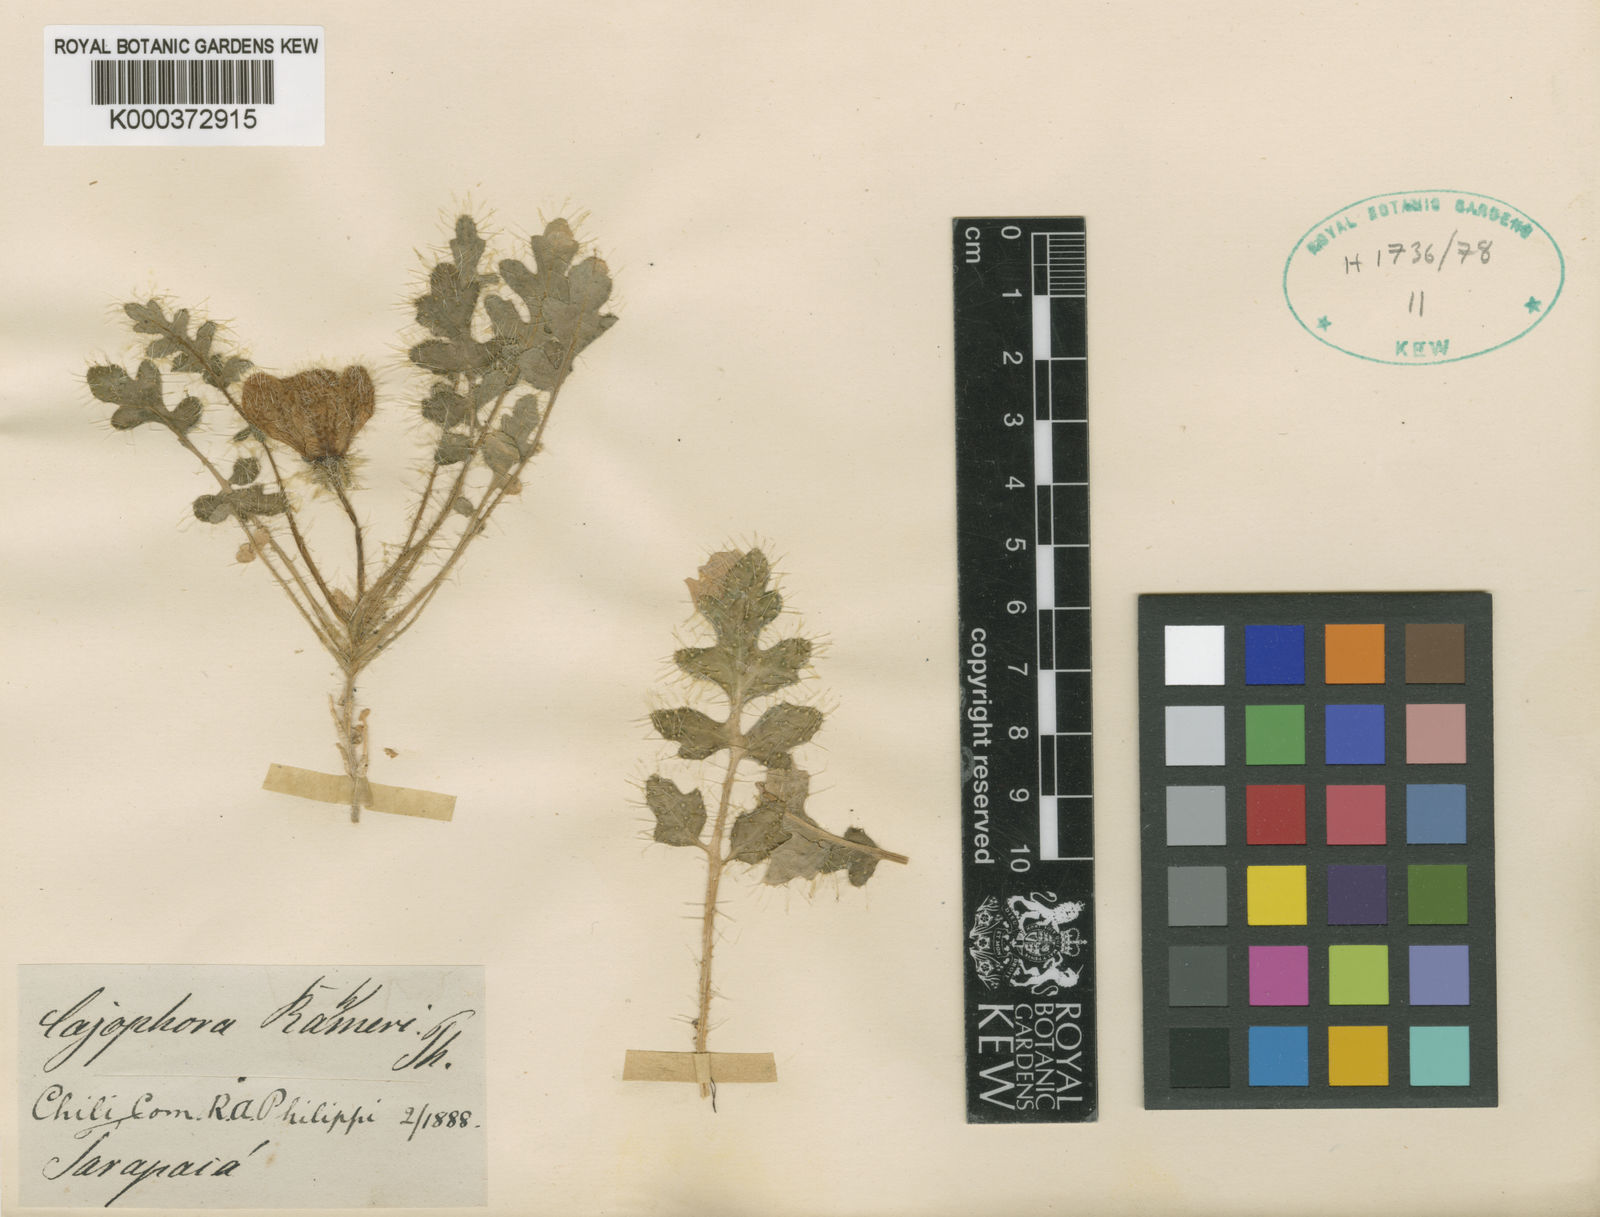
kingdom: Plantae
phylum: Tracheophyta
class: Magnoliopsida
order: Cornales
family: Loasaceae
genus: Caiophora
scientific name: Caiophora rosulata
